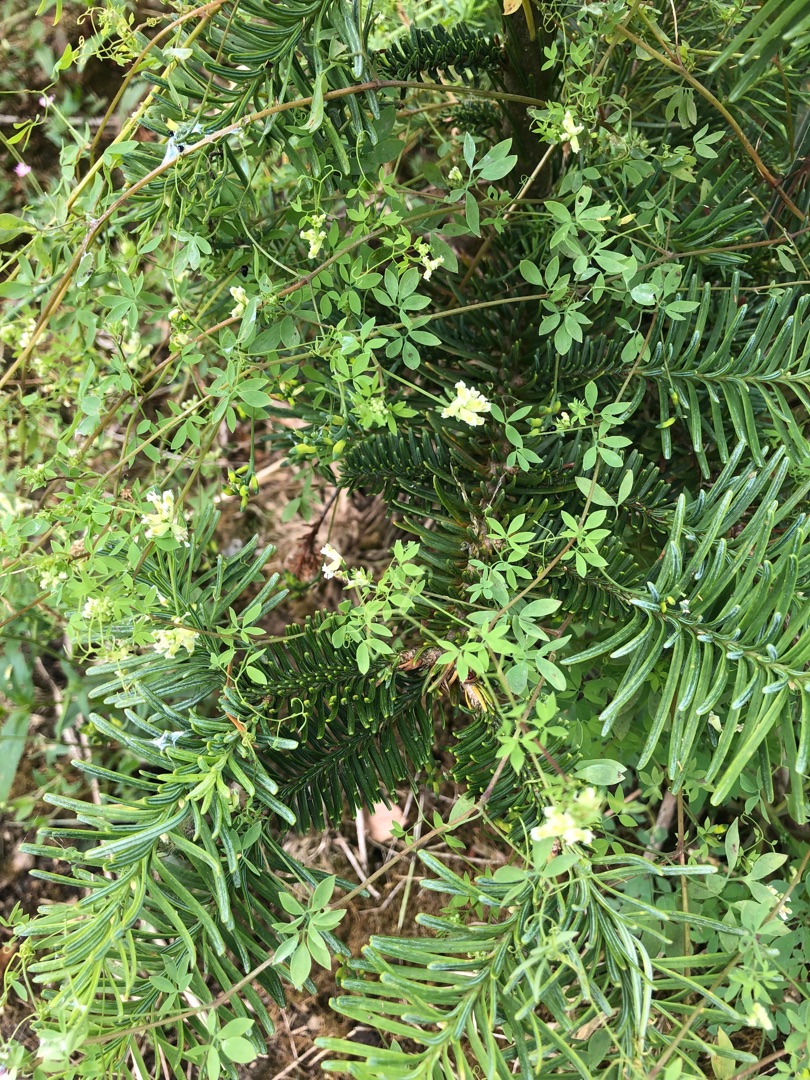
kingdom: Plantae
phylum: Tracheophyta
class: Magnoliopsida
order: Ranunculales
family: Papaveraceae
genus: Ceratocapnos
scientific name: Ceratocapnos claviculata
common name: Klatrende lærkespore
